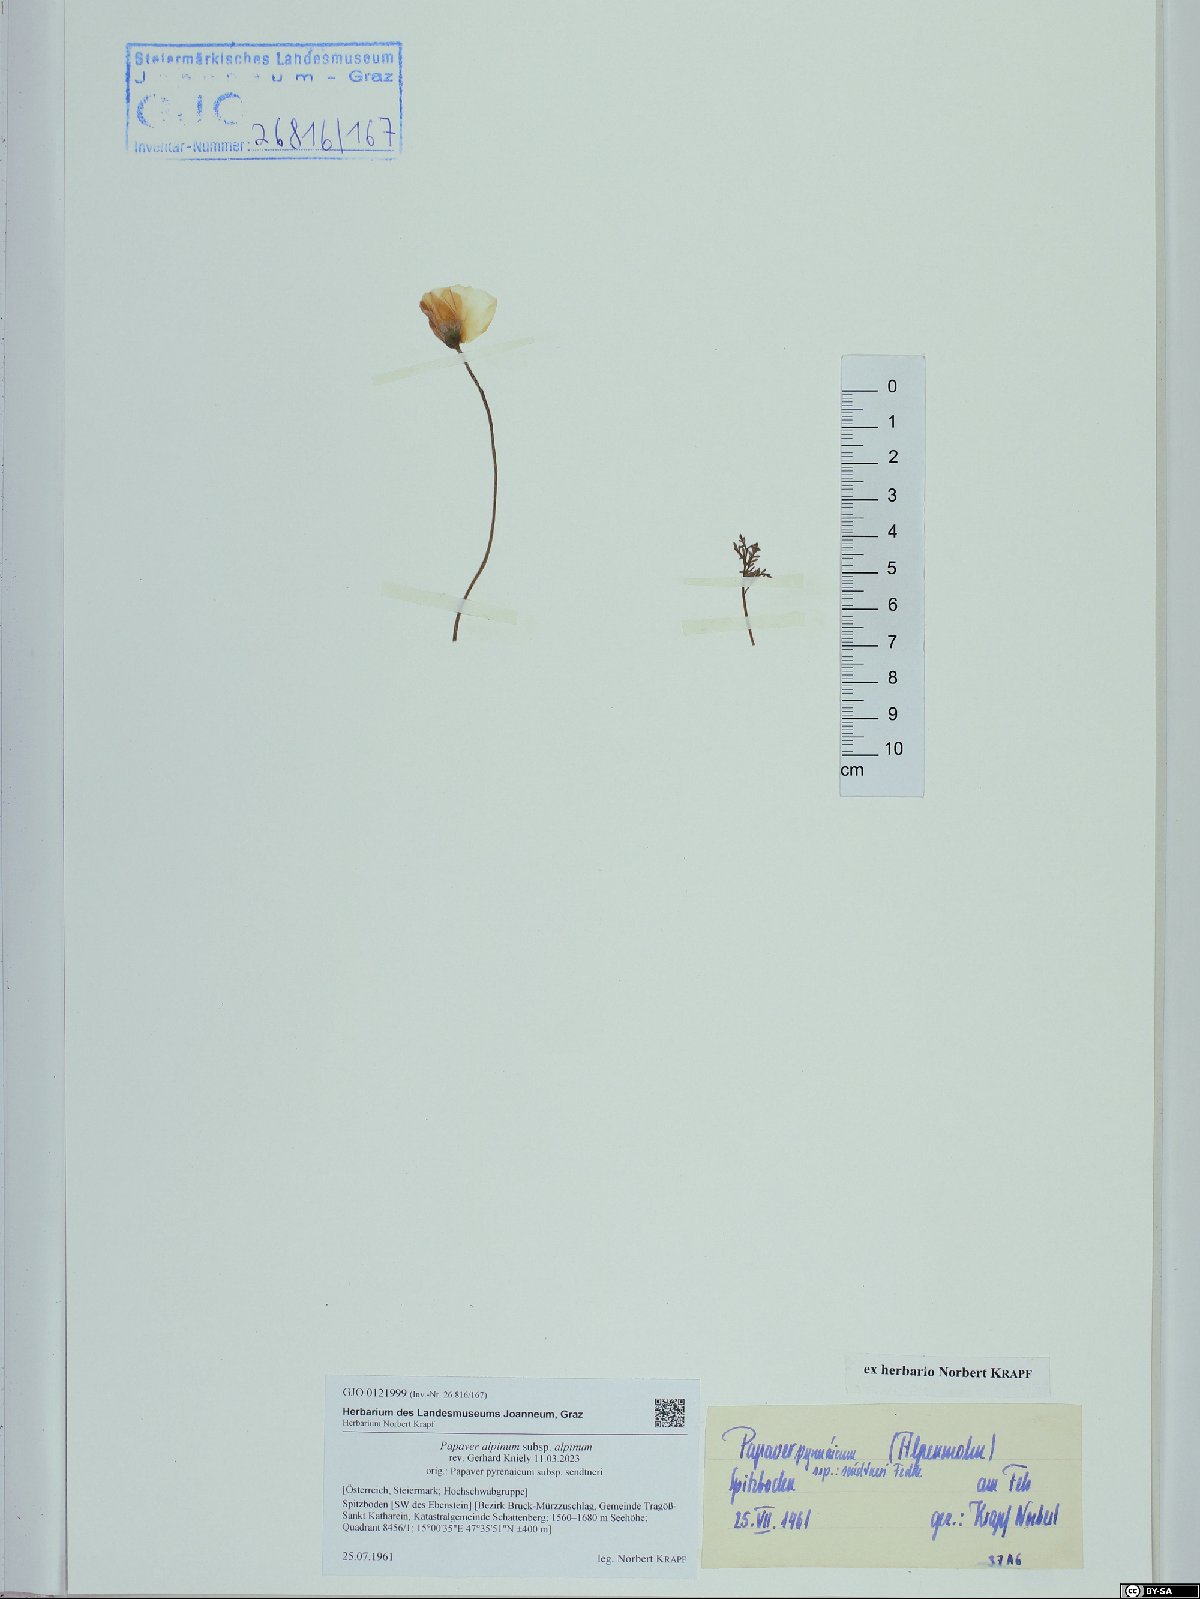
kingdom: Plantae
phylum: Tracheophyta
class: Magnoliopsida
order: Ranunculales
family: Papaveraceae
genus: Papaver
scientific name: Papaver alpinum
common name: Austrian poppy
